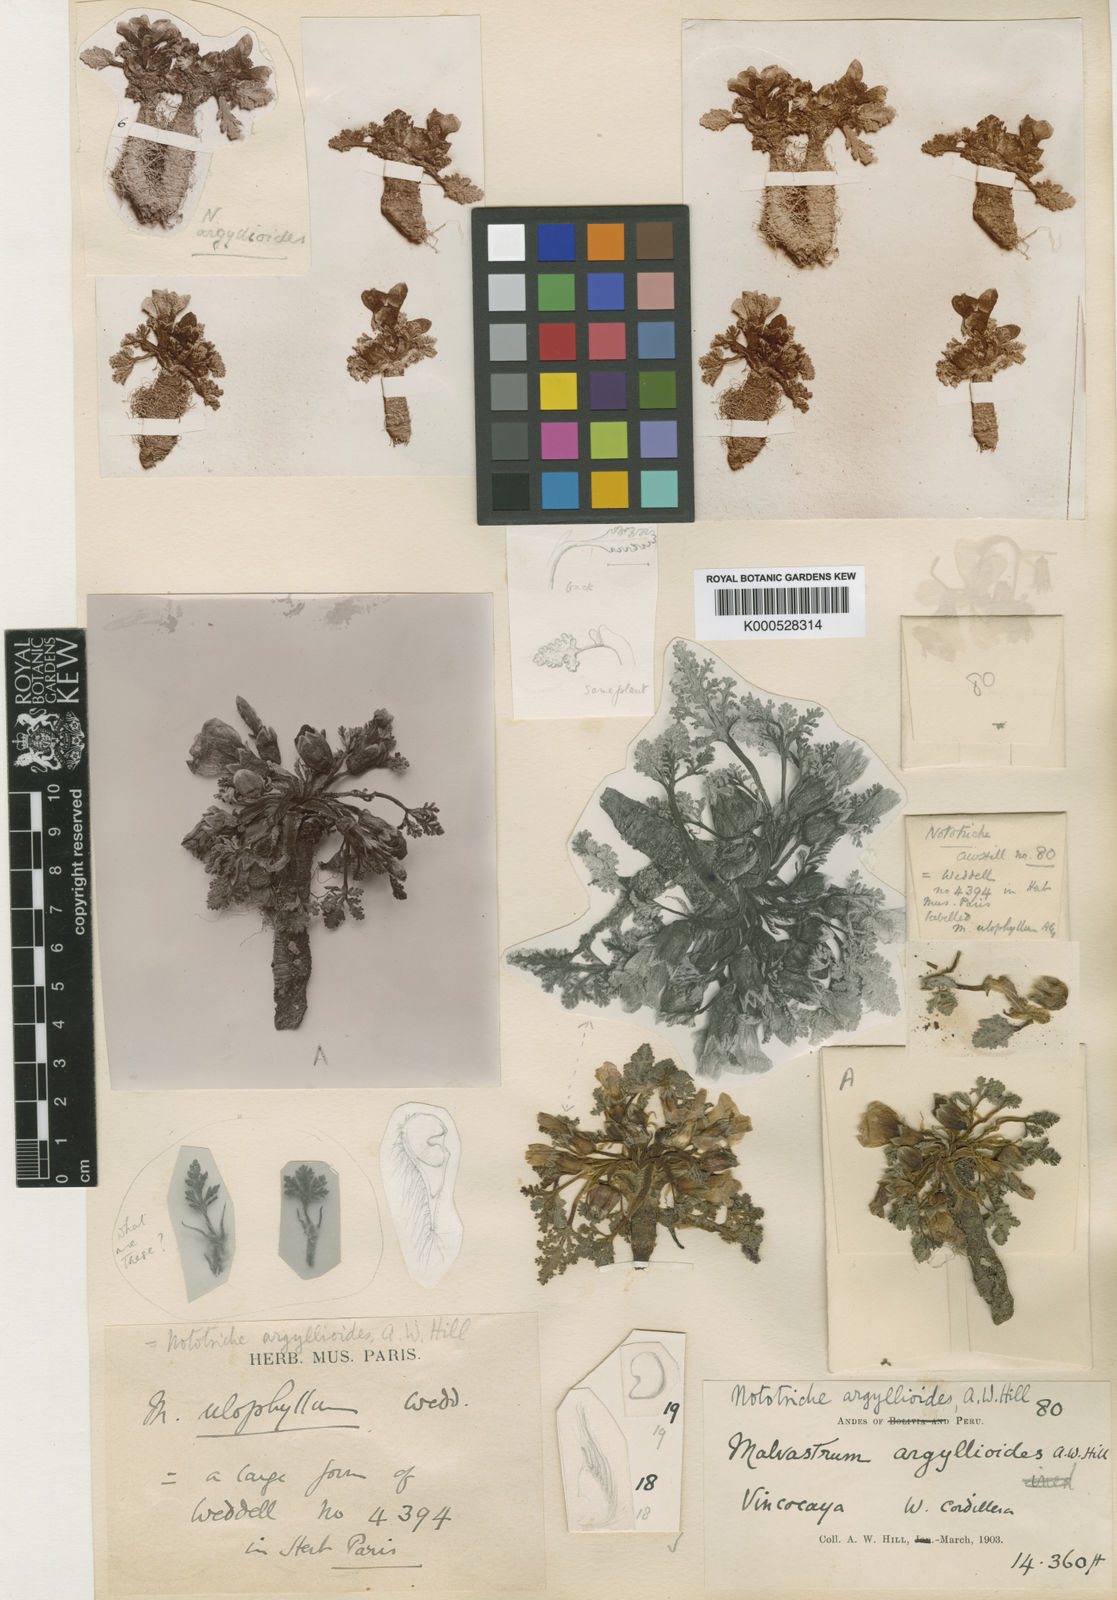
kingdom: Plantae
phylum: Tracheophyta
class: Magnoliopsida
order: Malvales
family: Malvaceae
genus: Nototriche
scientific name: Nototriche
